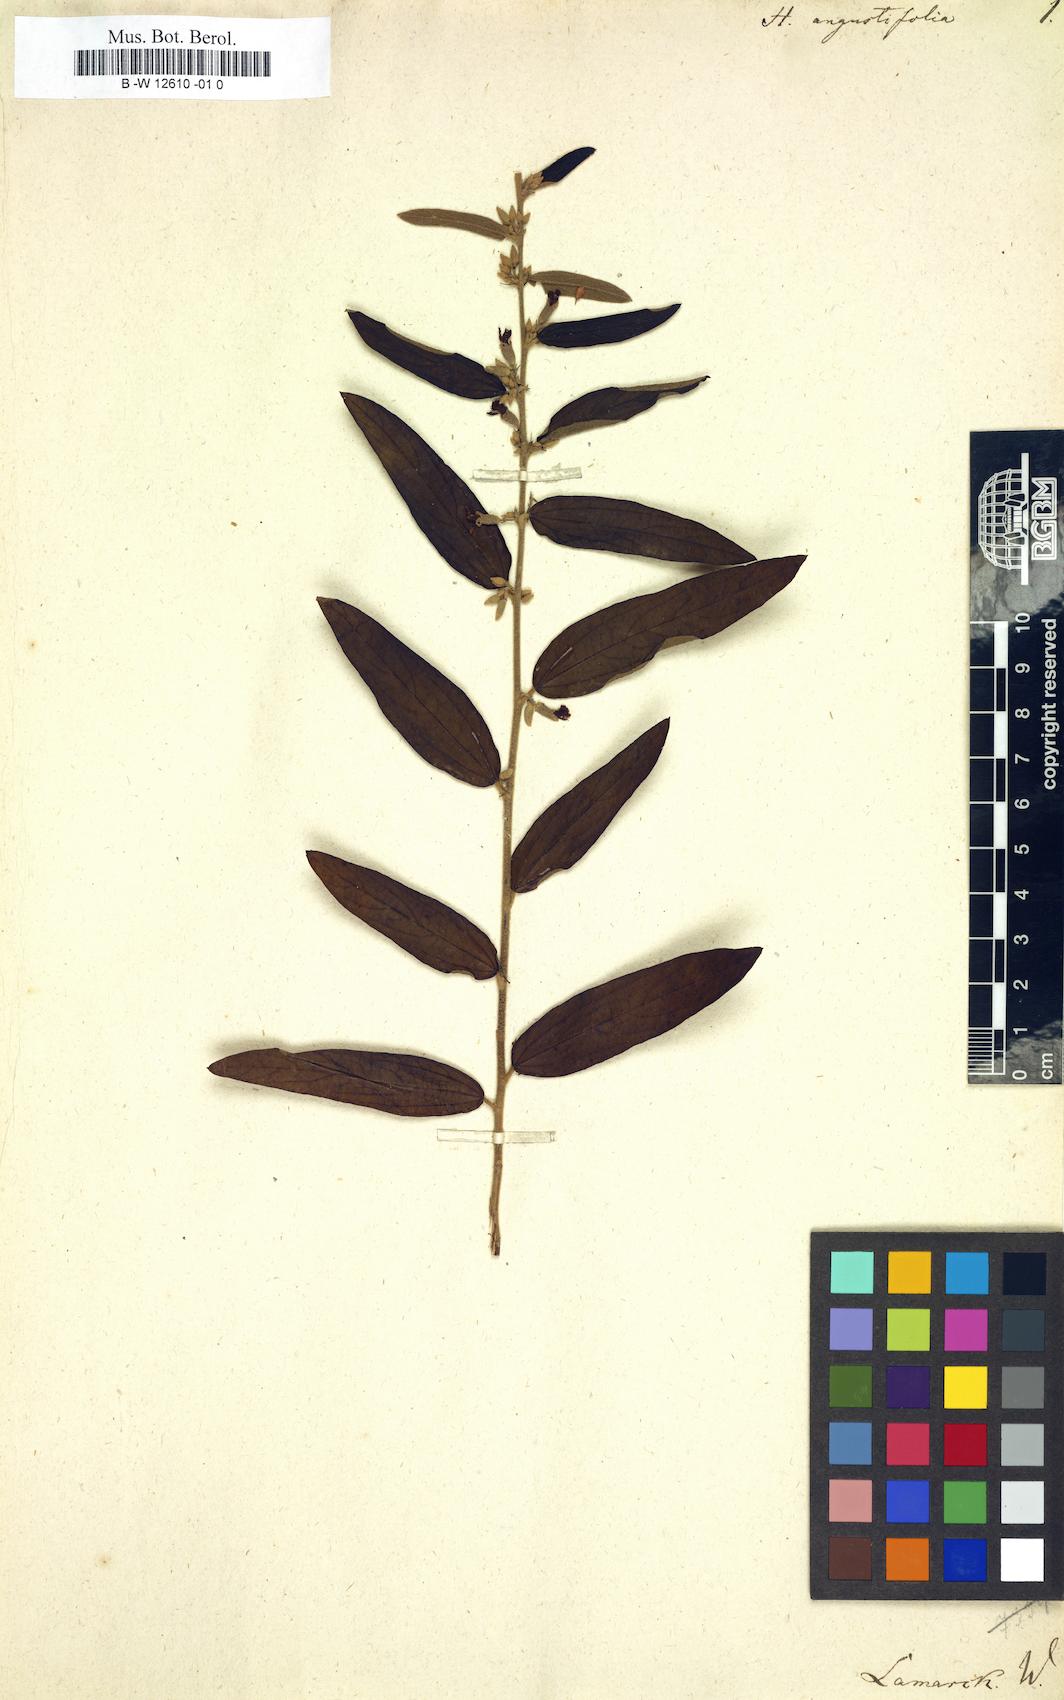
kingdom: Plantae
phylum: Tracheophyta
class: Magnoliopsida
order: Malvales
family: Malvaceae
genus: Helicteres
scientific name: Helicteres angustifolia
